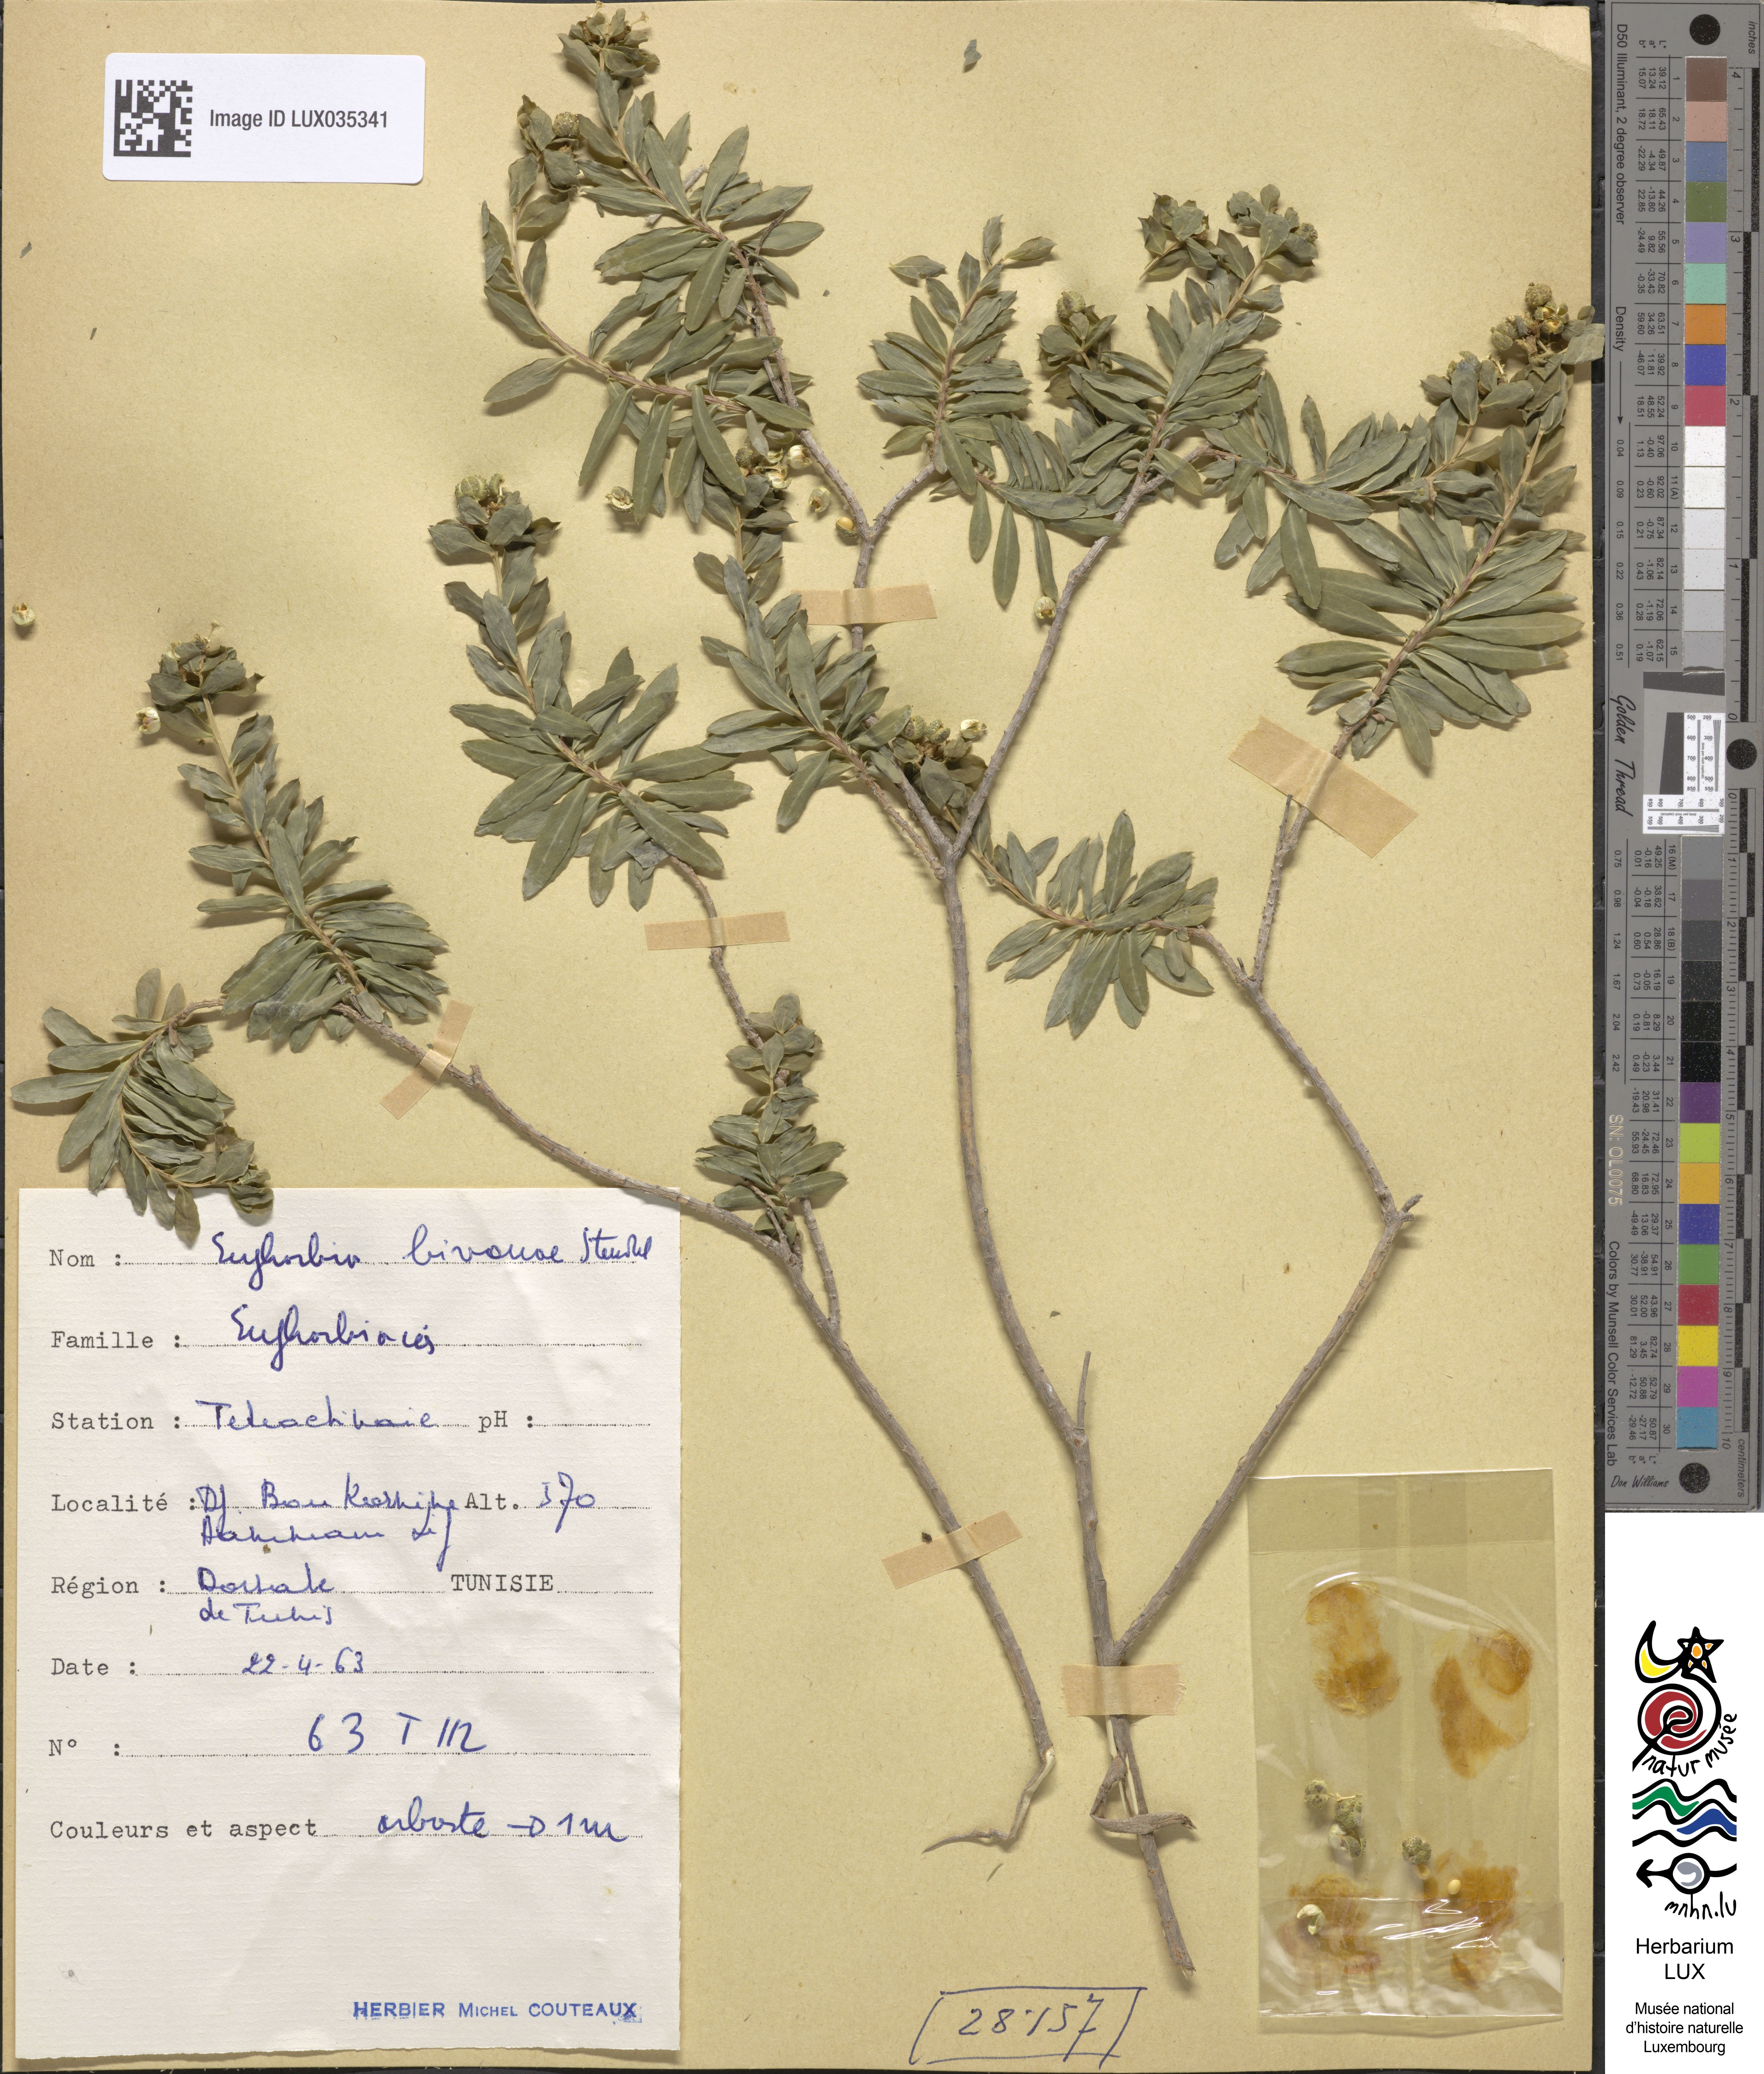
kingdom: Plantae
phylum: Tracheophyta
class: Magnoliopsida
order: Malpighiales
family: Euphorbiaceae
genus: Euphorbia
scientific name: Euphorbia
